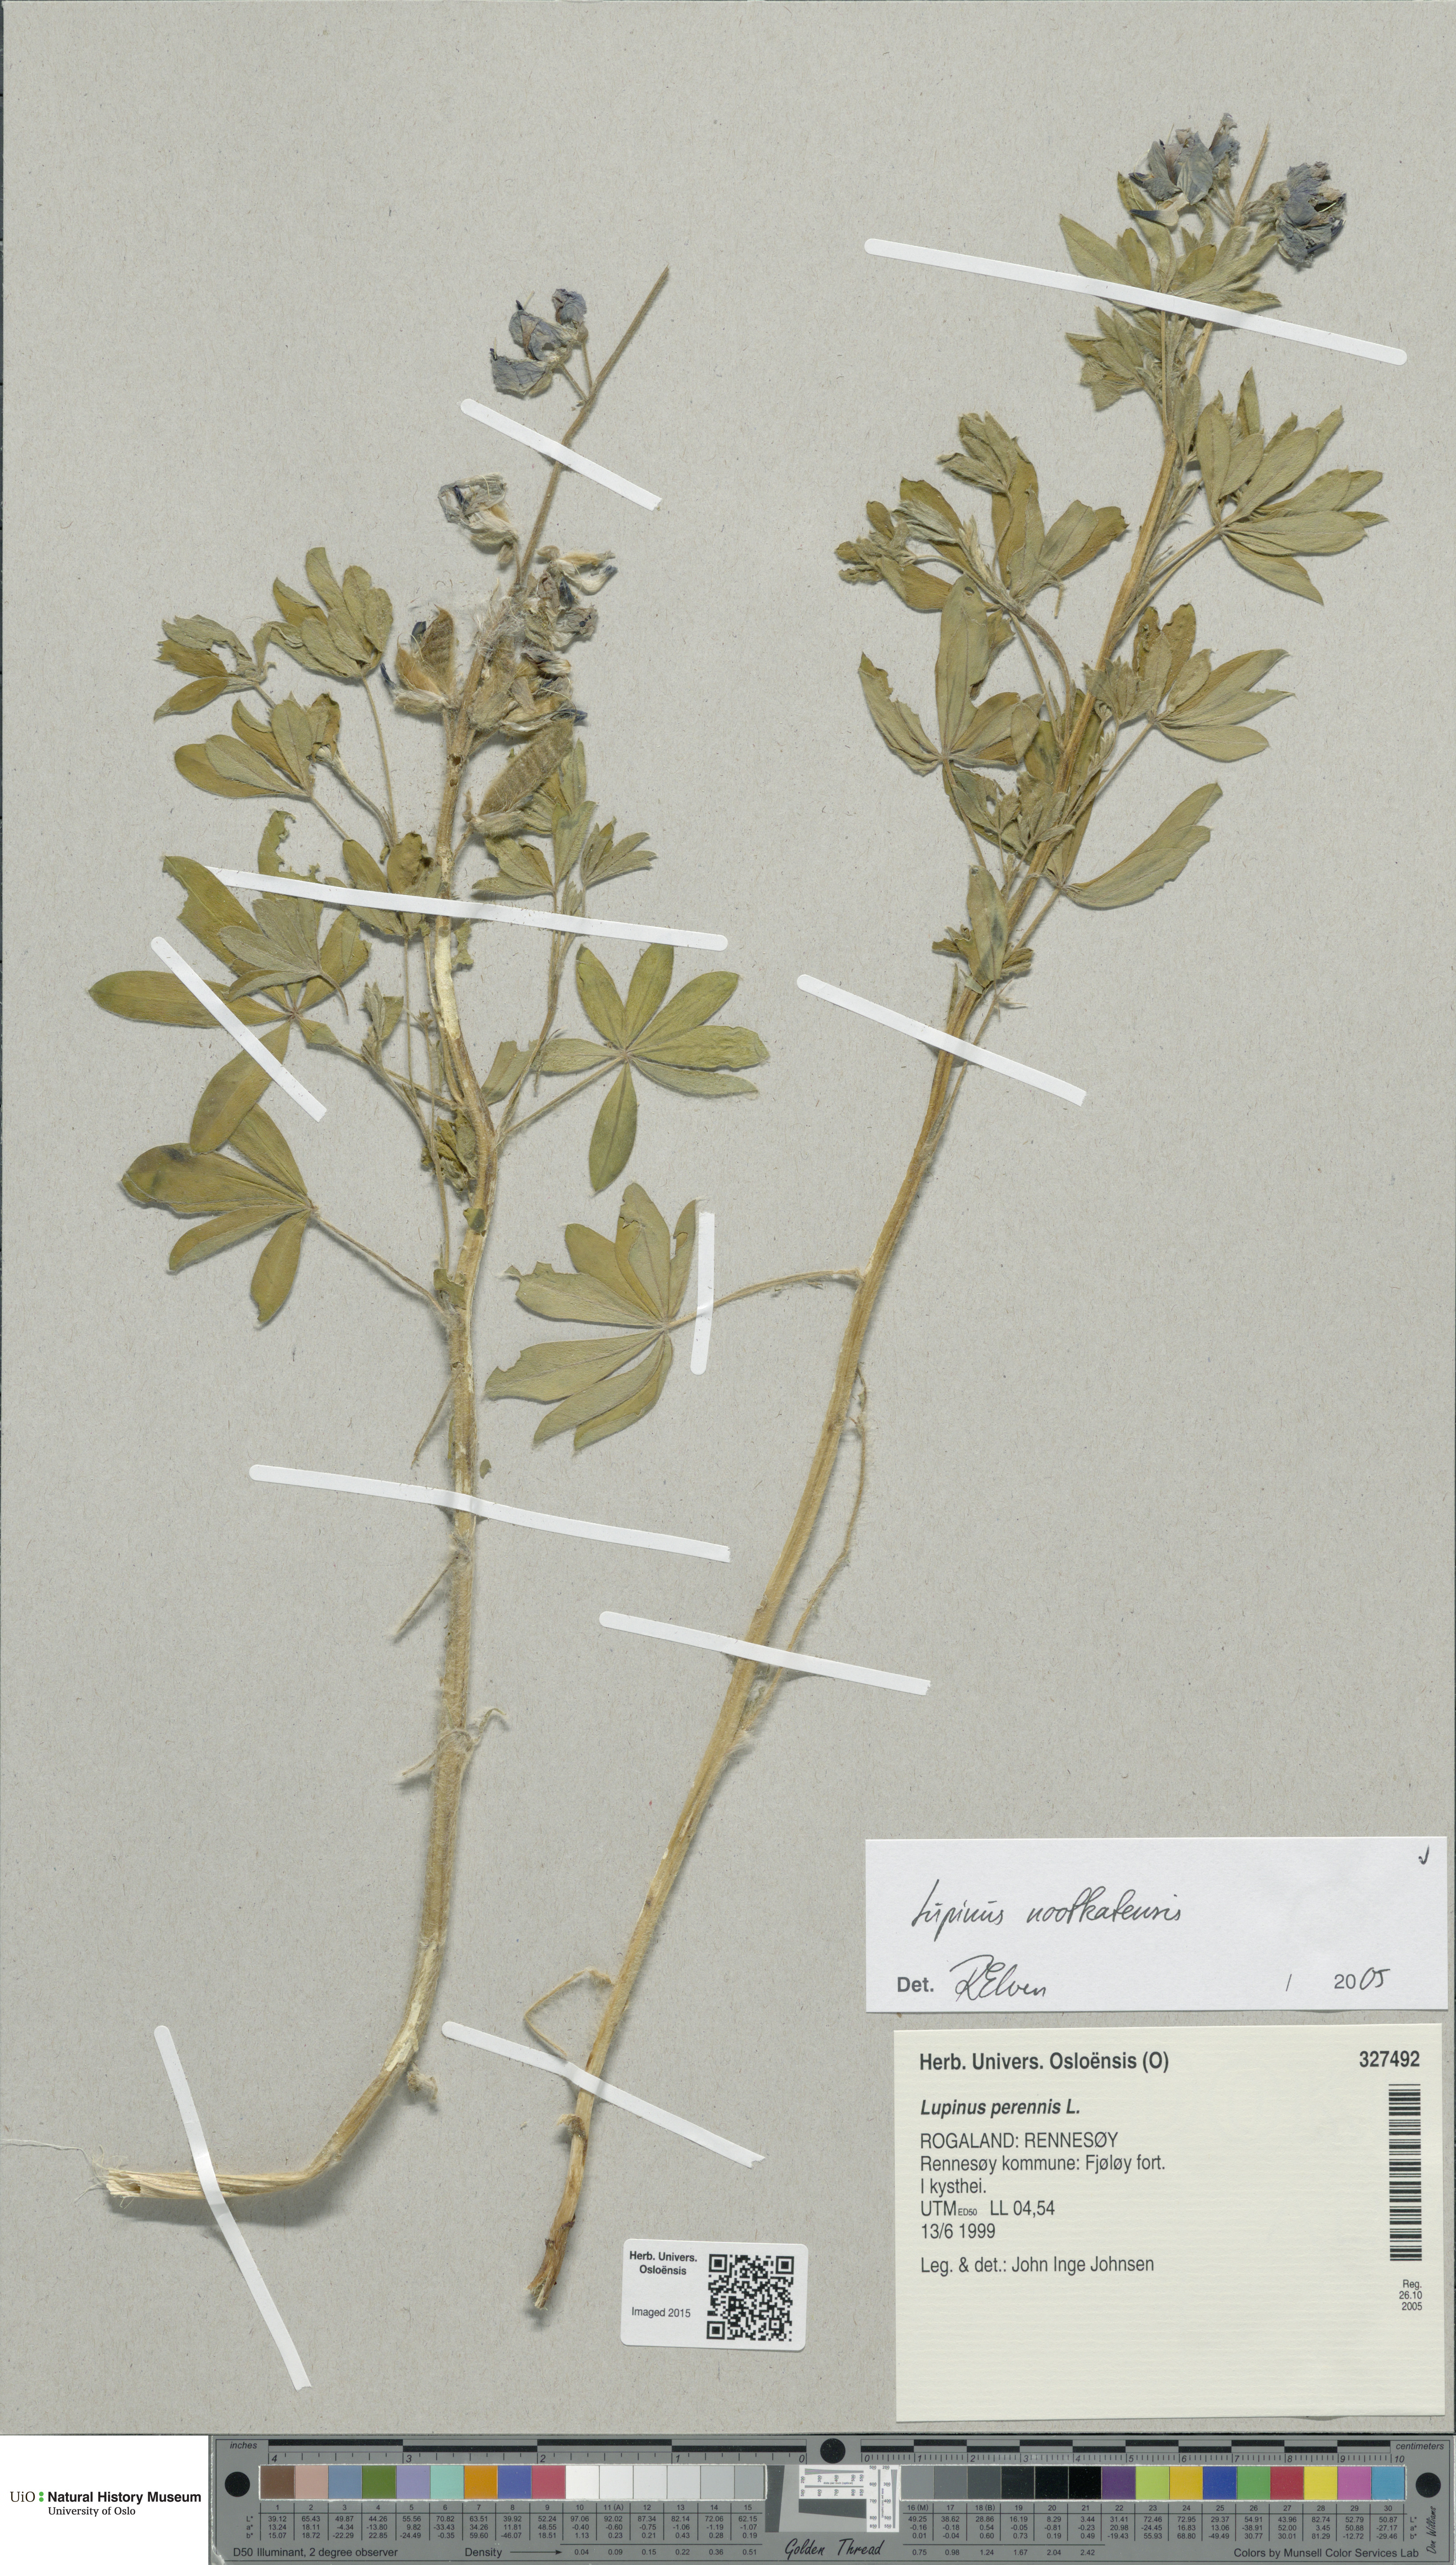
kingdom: Plantae
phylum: Tracheophyta
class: Magnoliopsida
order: Fabales
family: Fabaceae
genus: Lupinus
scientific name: Lupinus nootkatensis
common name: Nootka lupine
